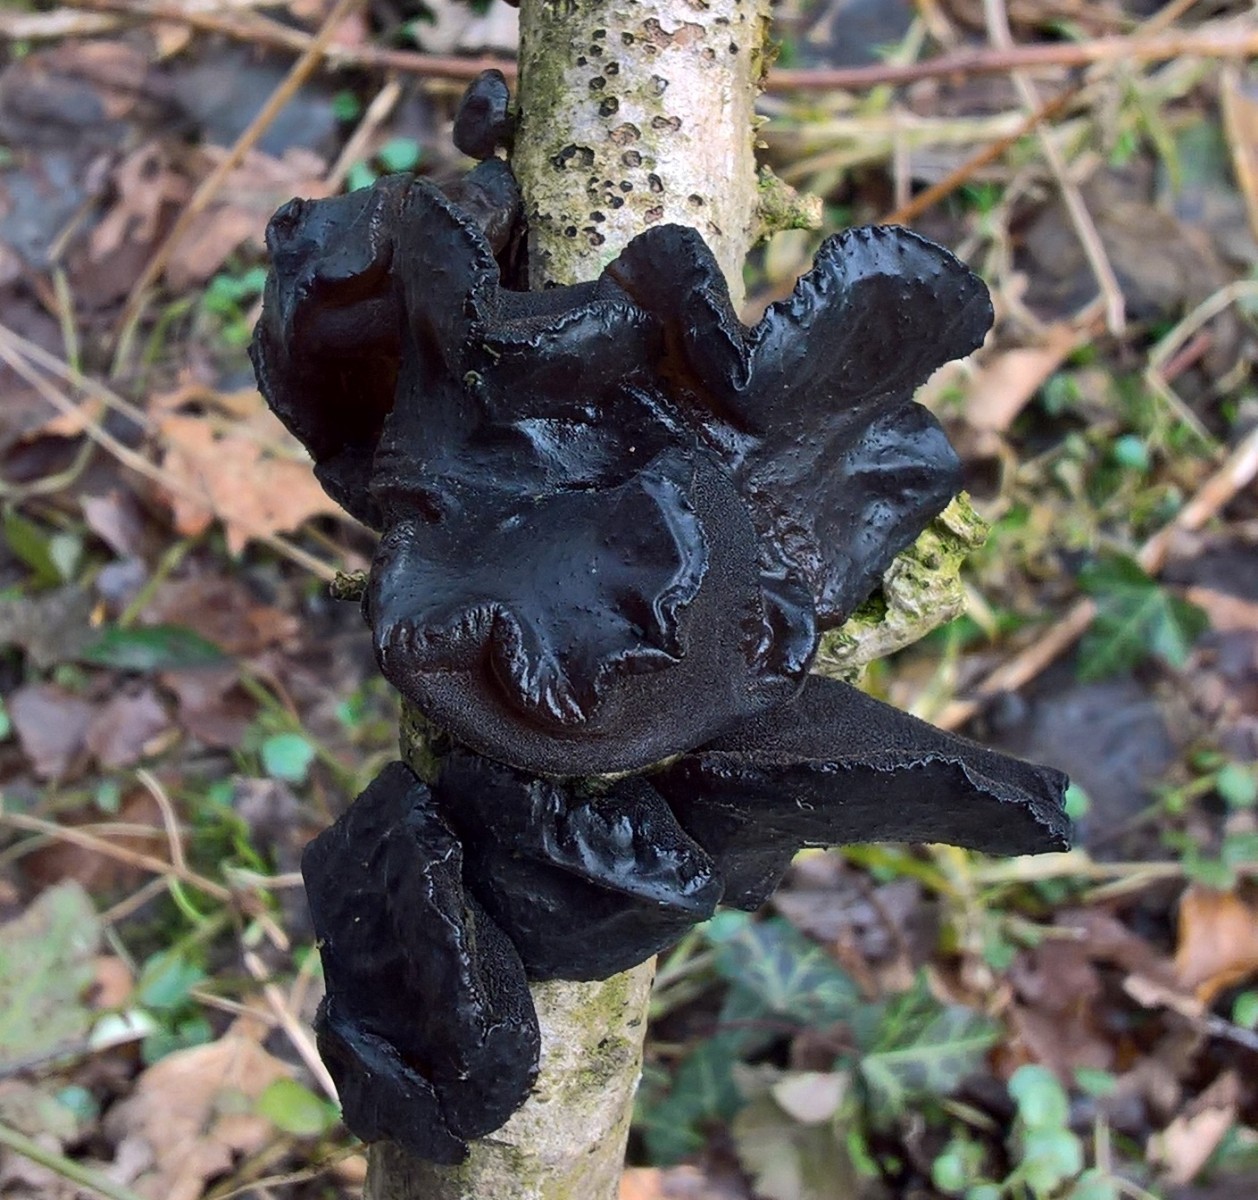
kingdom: Fungi
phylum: Basidiomycota
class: Agaricomycetes
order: Auriculariales
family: Auriculariaceae
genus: Exidia
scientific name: Exidia glandulosa
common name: ege-bævretop
